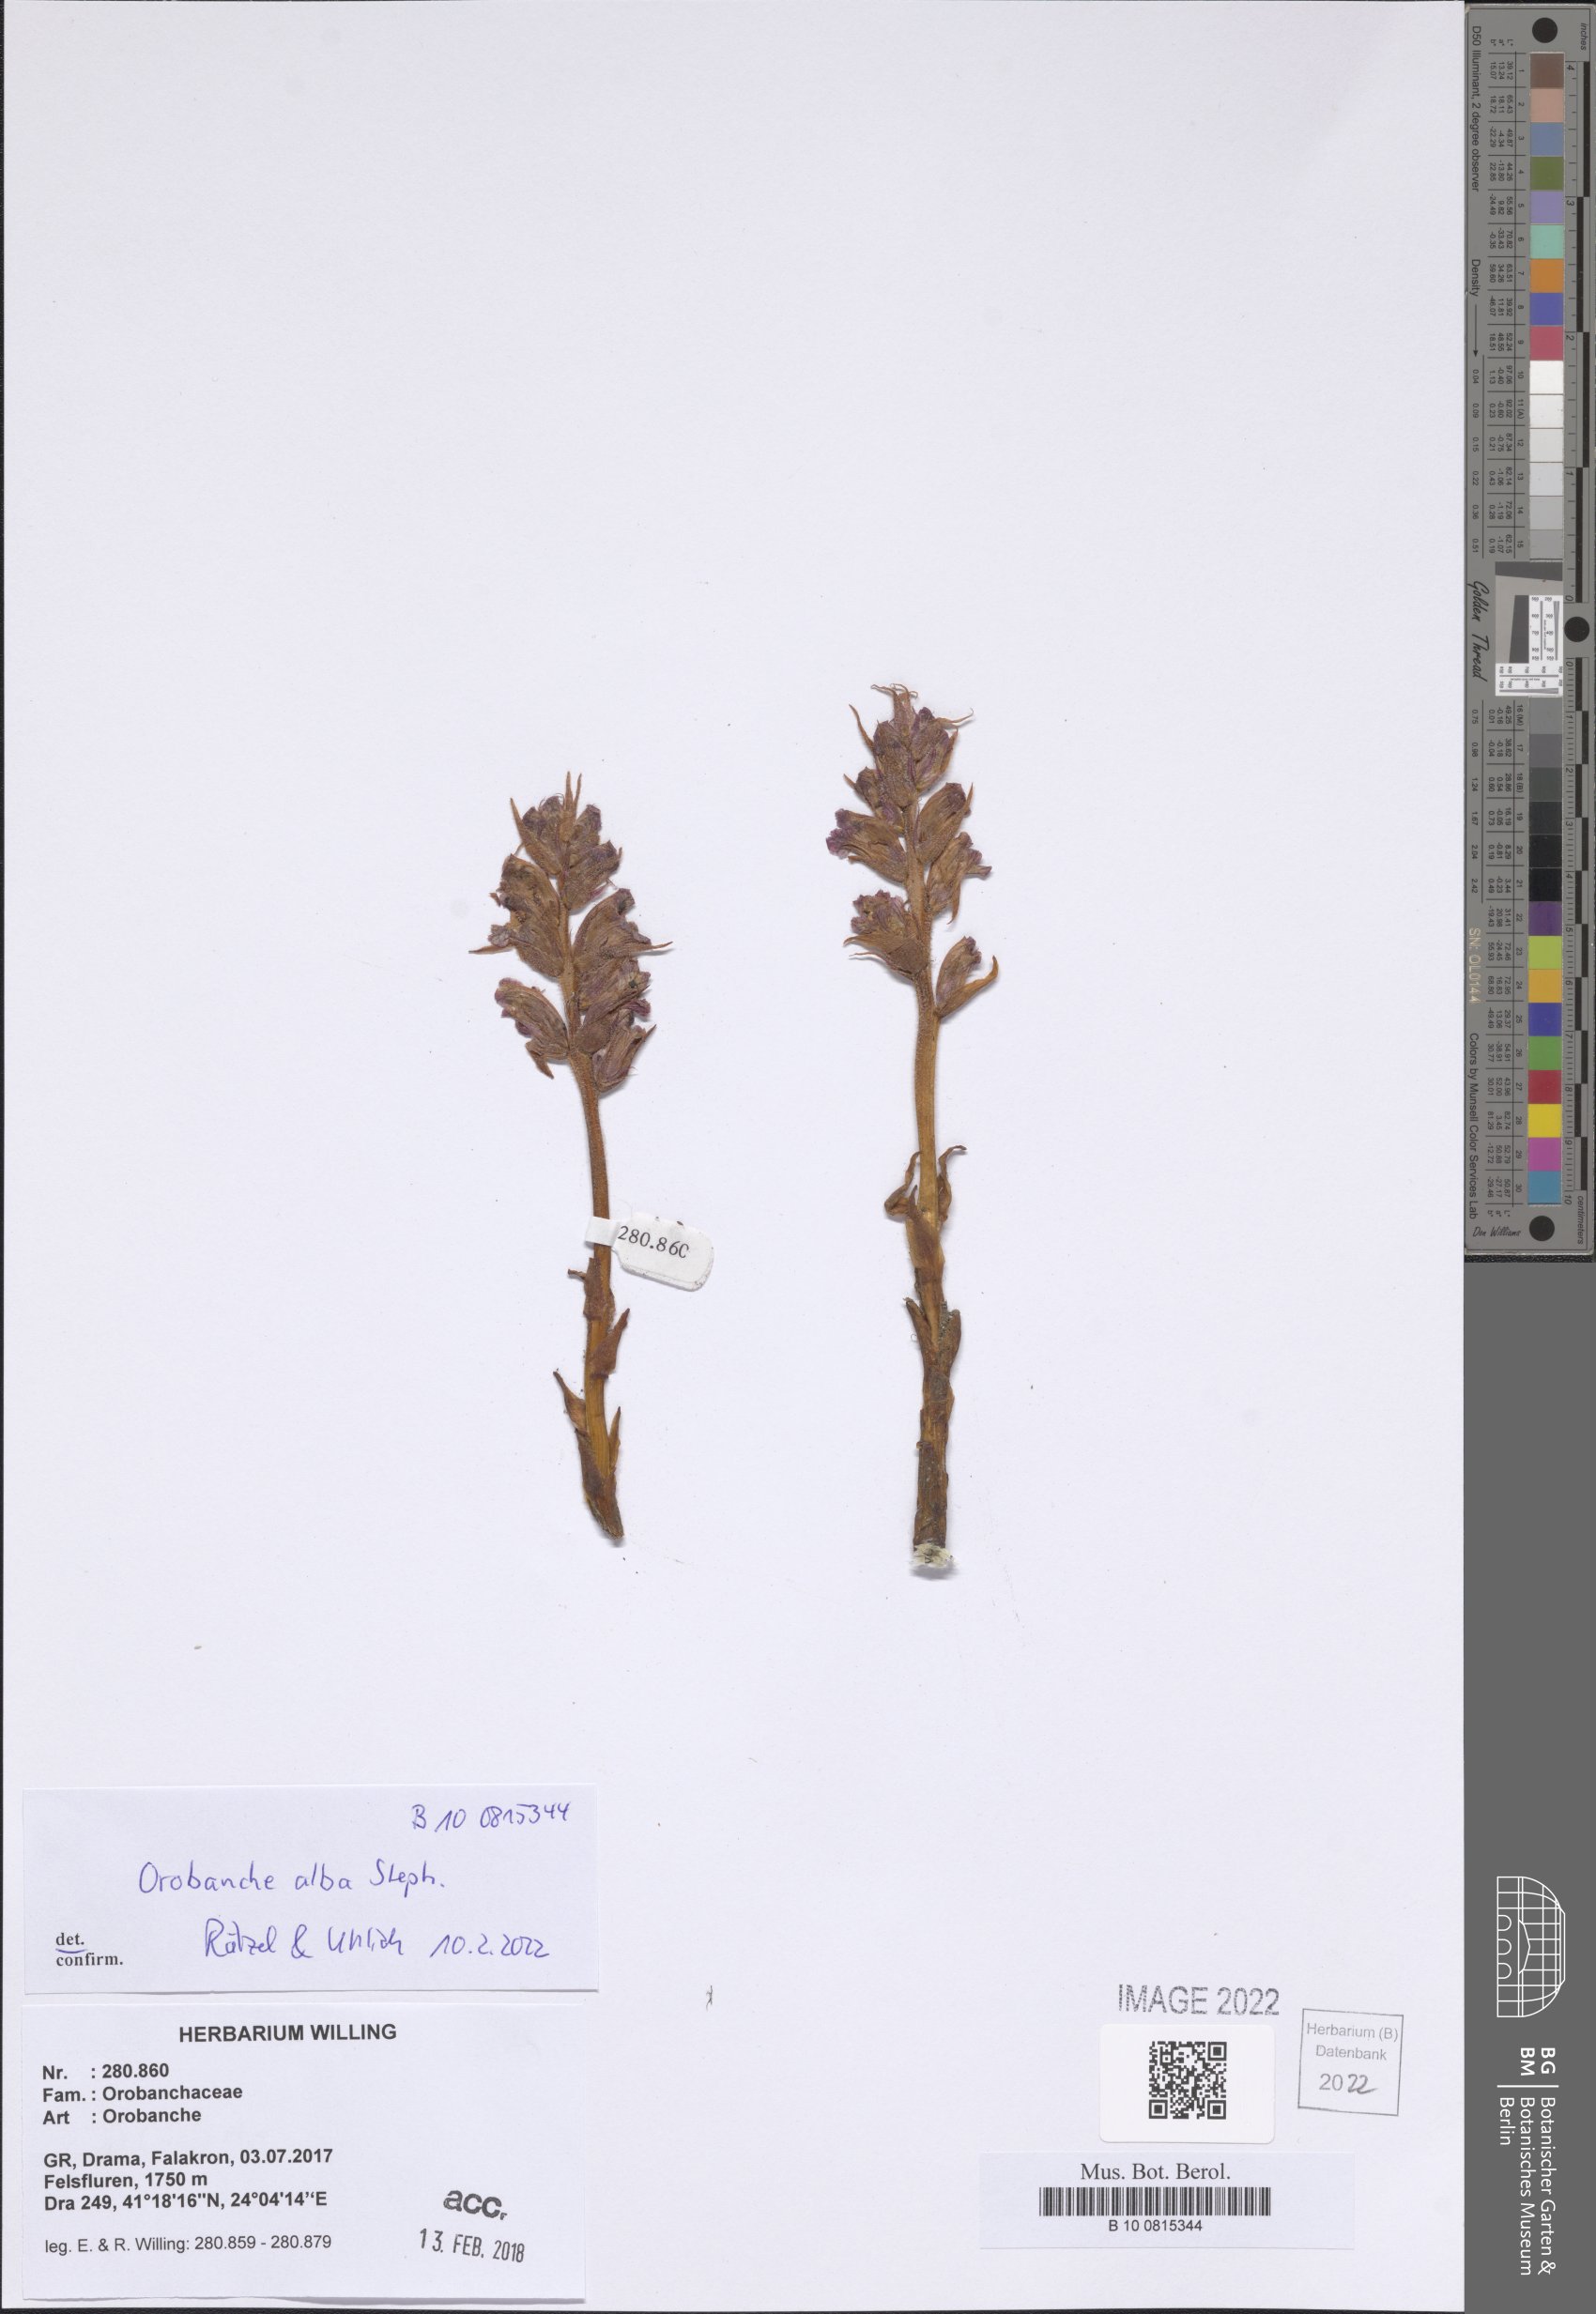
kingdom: Plantae
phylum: Tracheophyta
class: Magnoliopsida
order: Lamiales
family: Orobanchaceae
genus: Orobanche
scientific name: Orobanche alba
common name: Thyme broomrape
